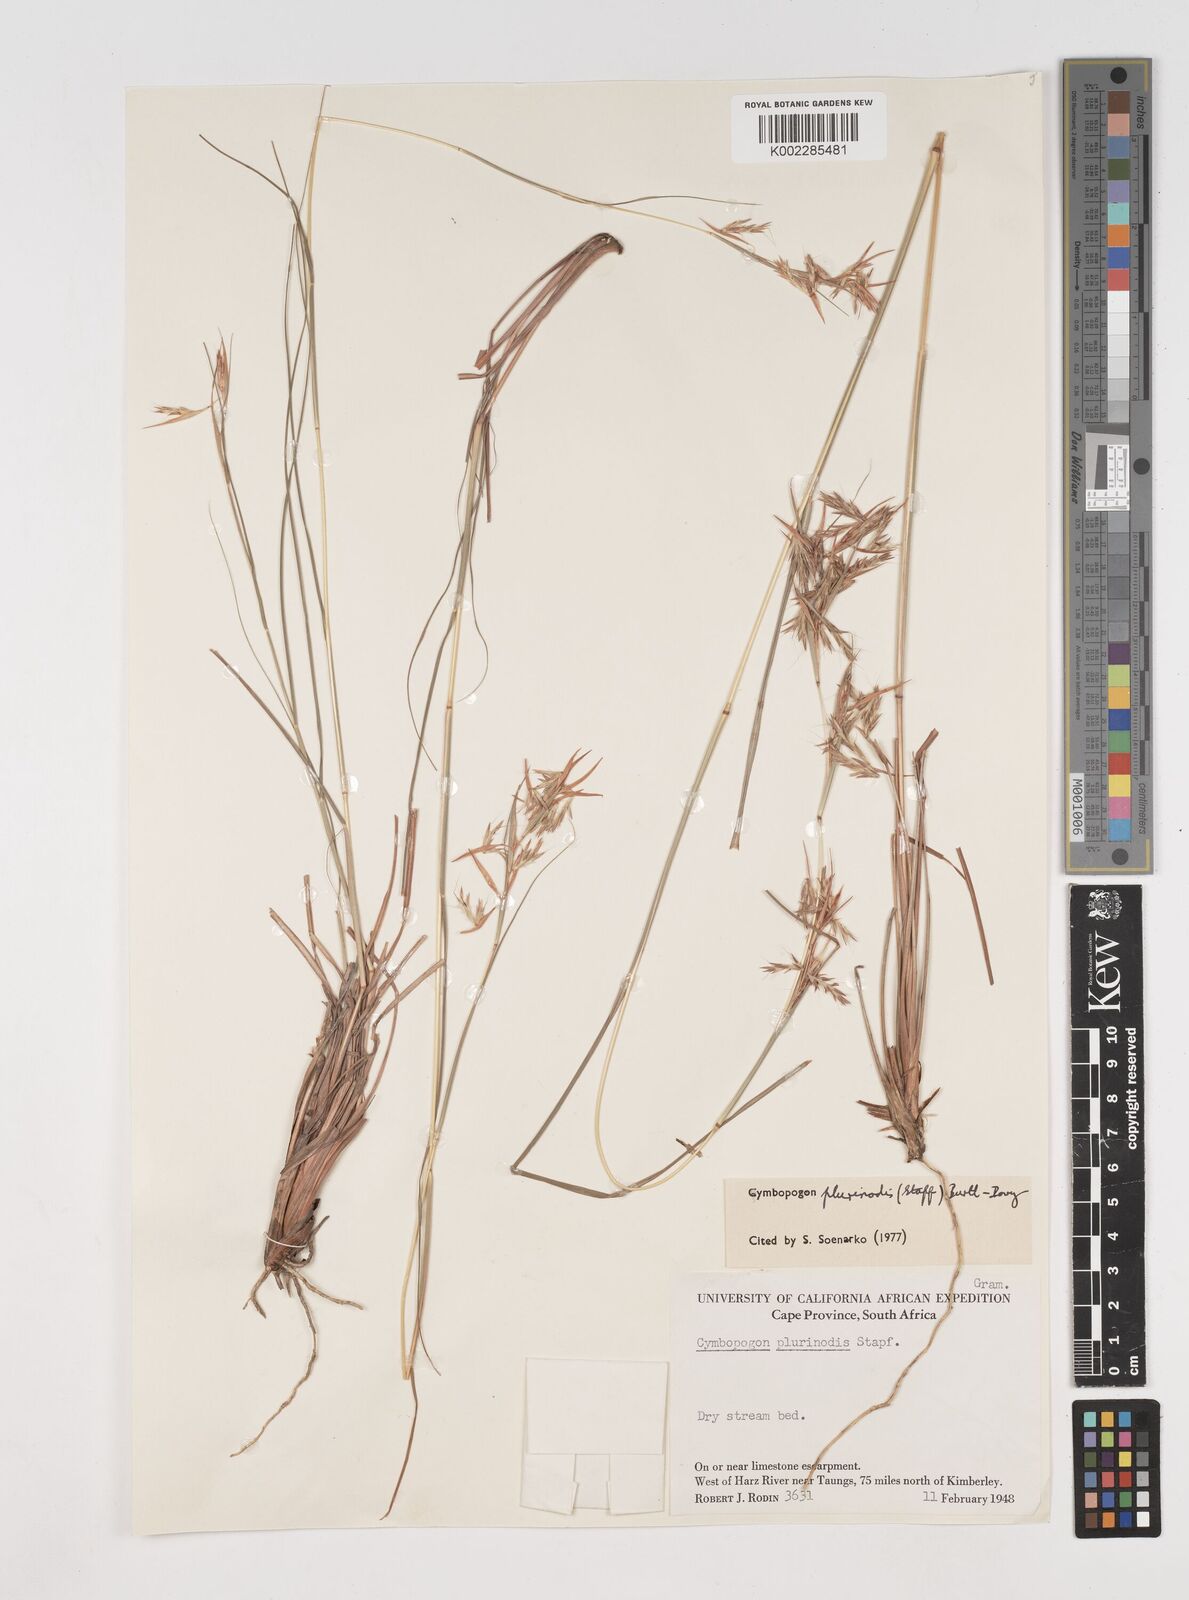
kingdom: Plantae
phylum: Tracheophyta
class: Liliopsida
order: Poales
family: Poaceae
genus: Cymbopogon
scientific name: Cymbopogon pospischilii
